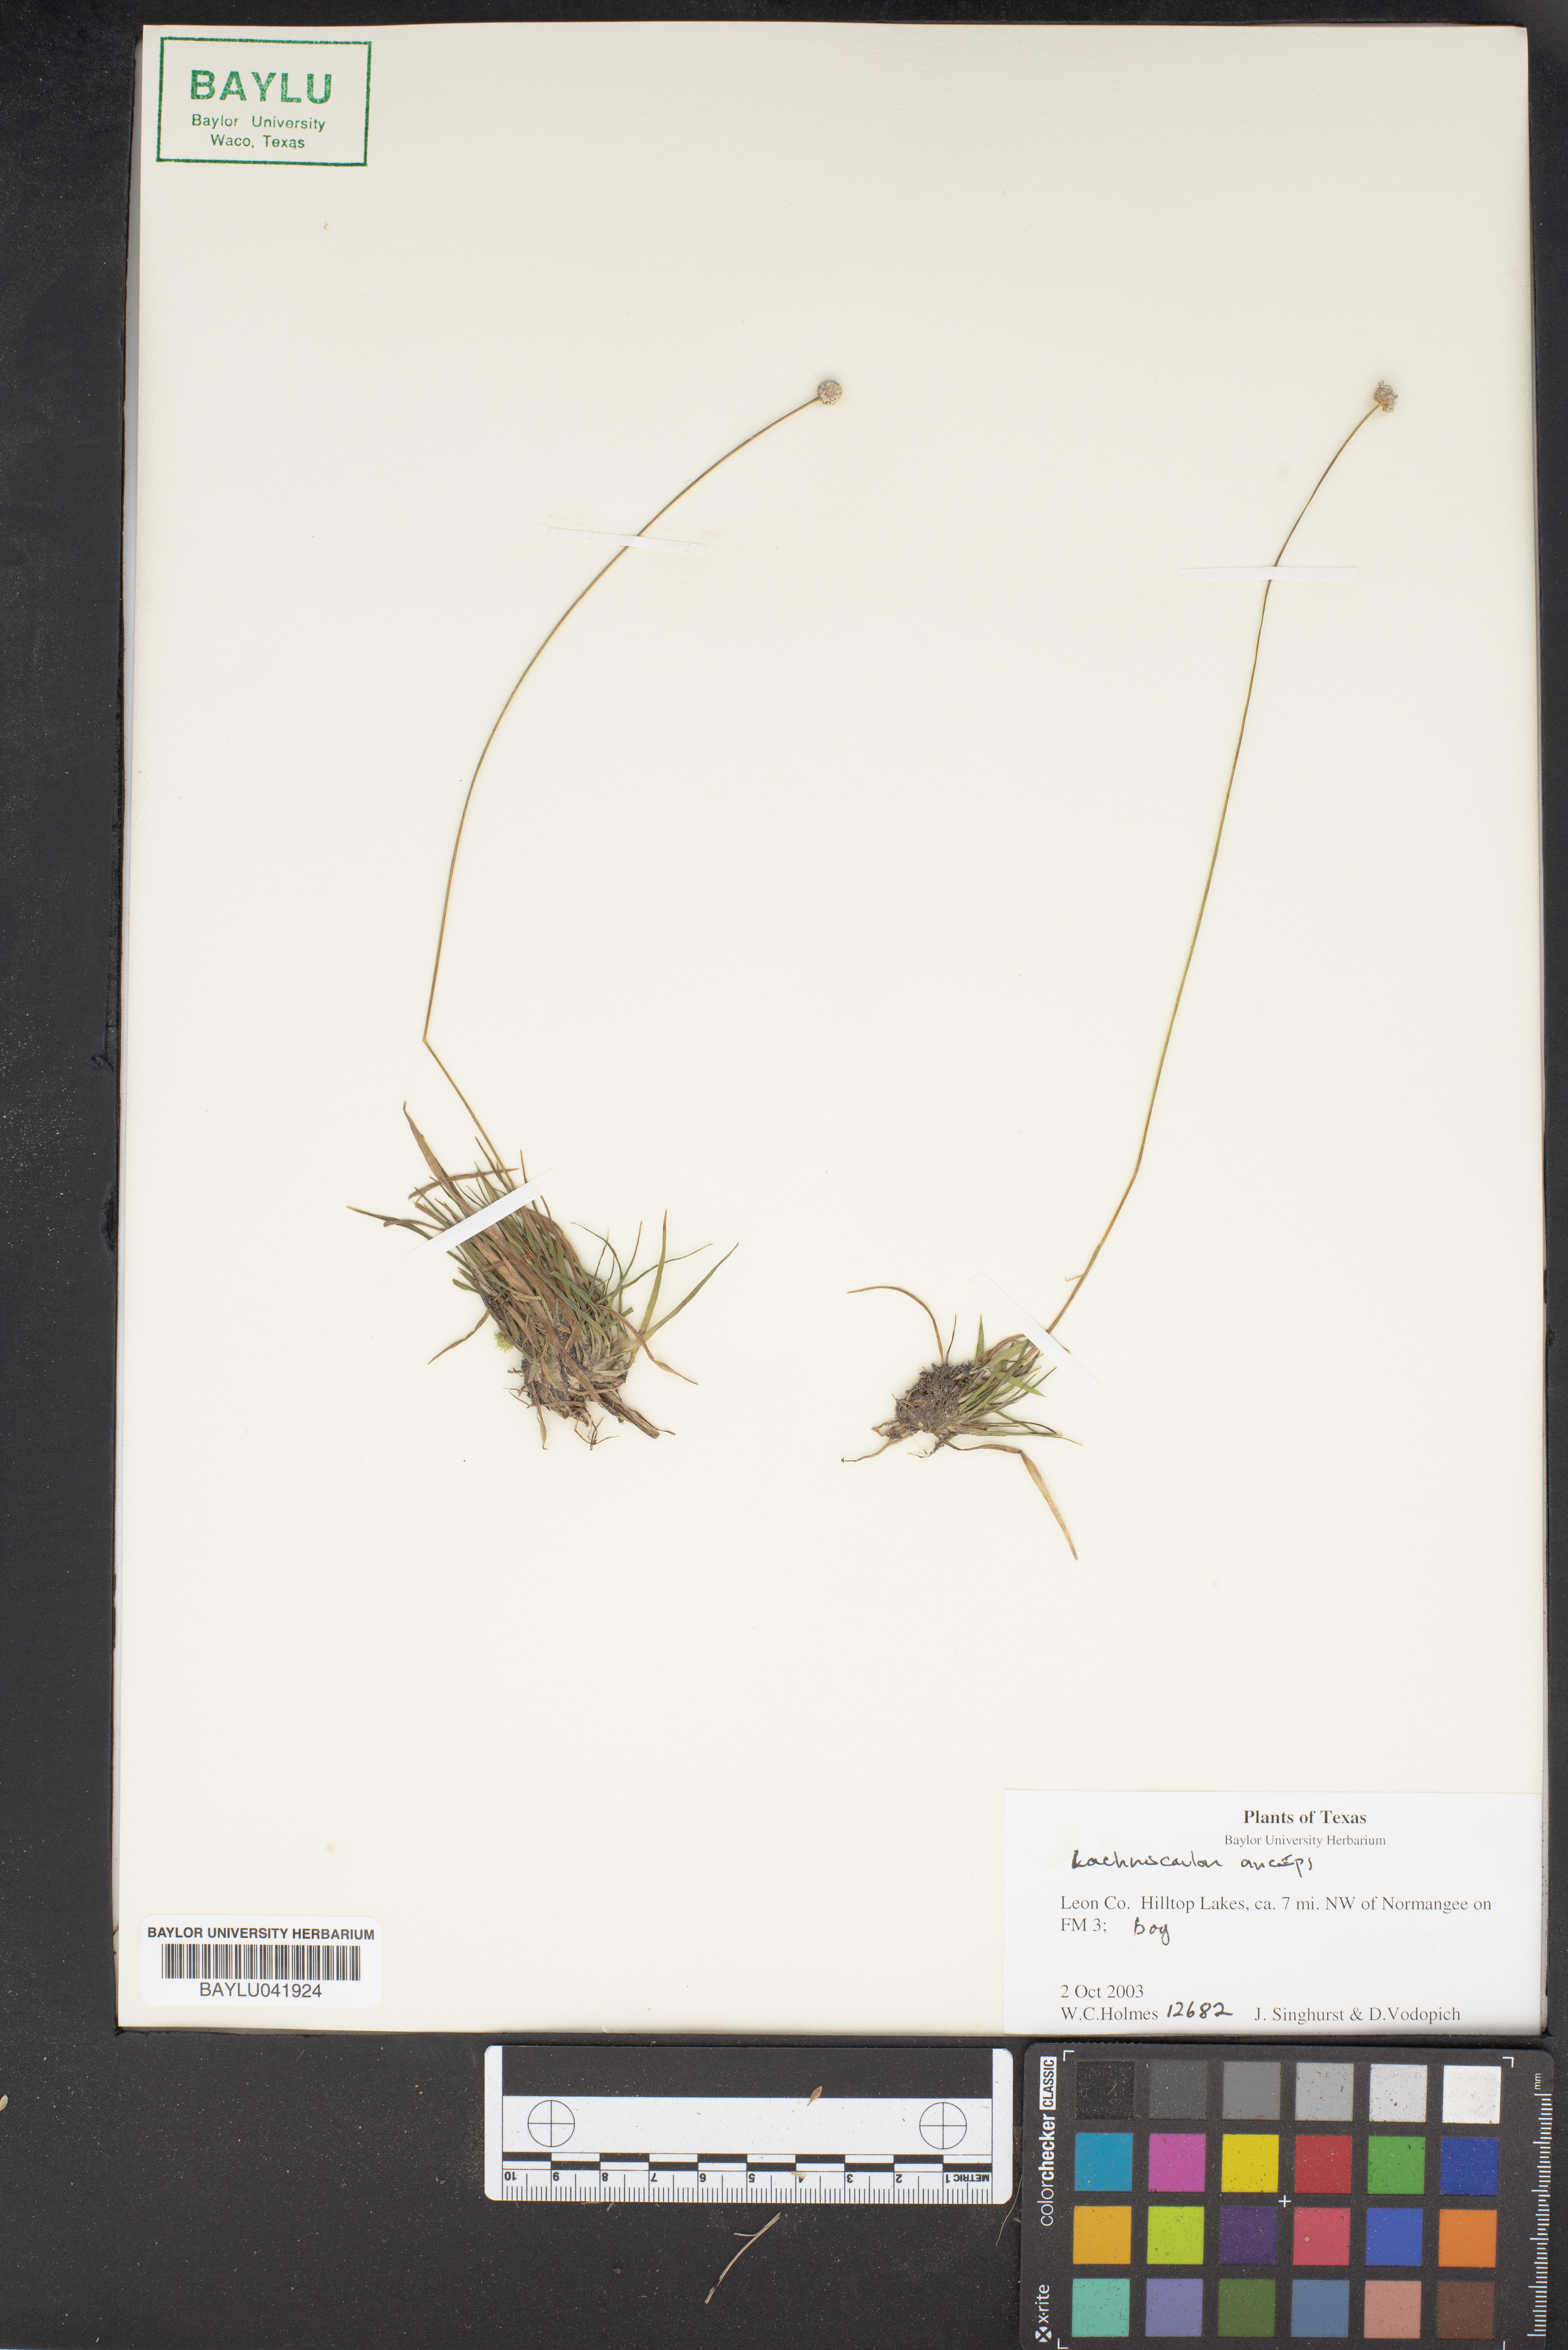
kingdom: Plantae
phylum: Tracheophyta
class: Liliopsida
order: Poales
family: Eriocaulaceae
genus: Paepalanthus
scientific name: Paepalanthus anceps
